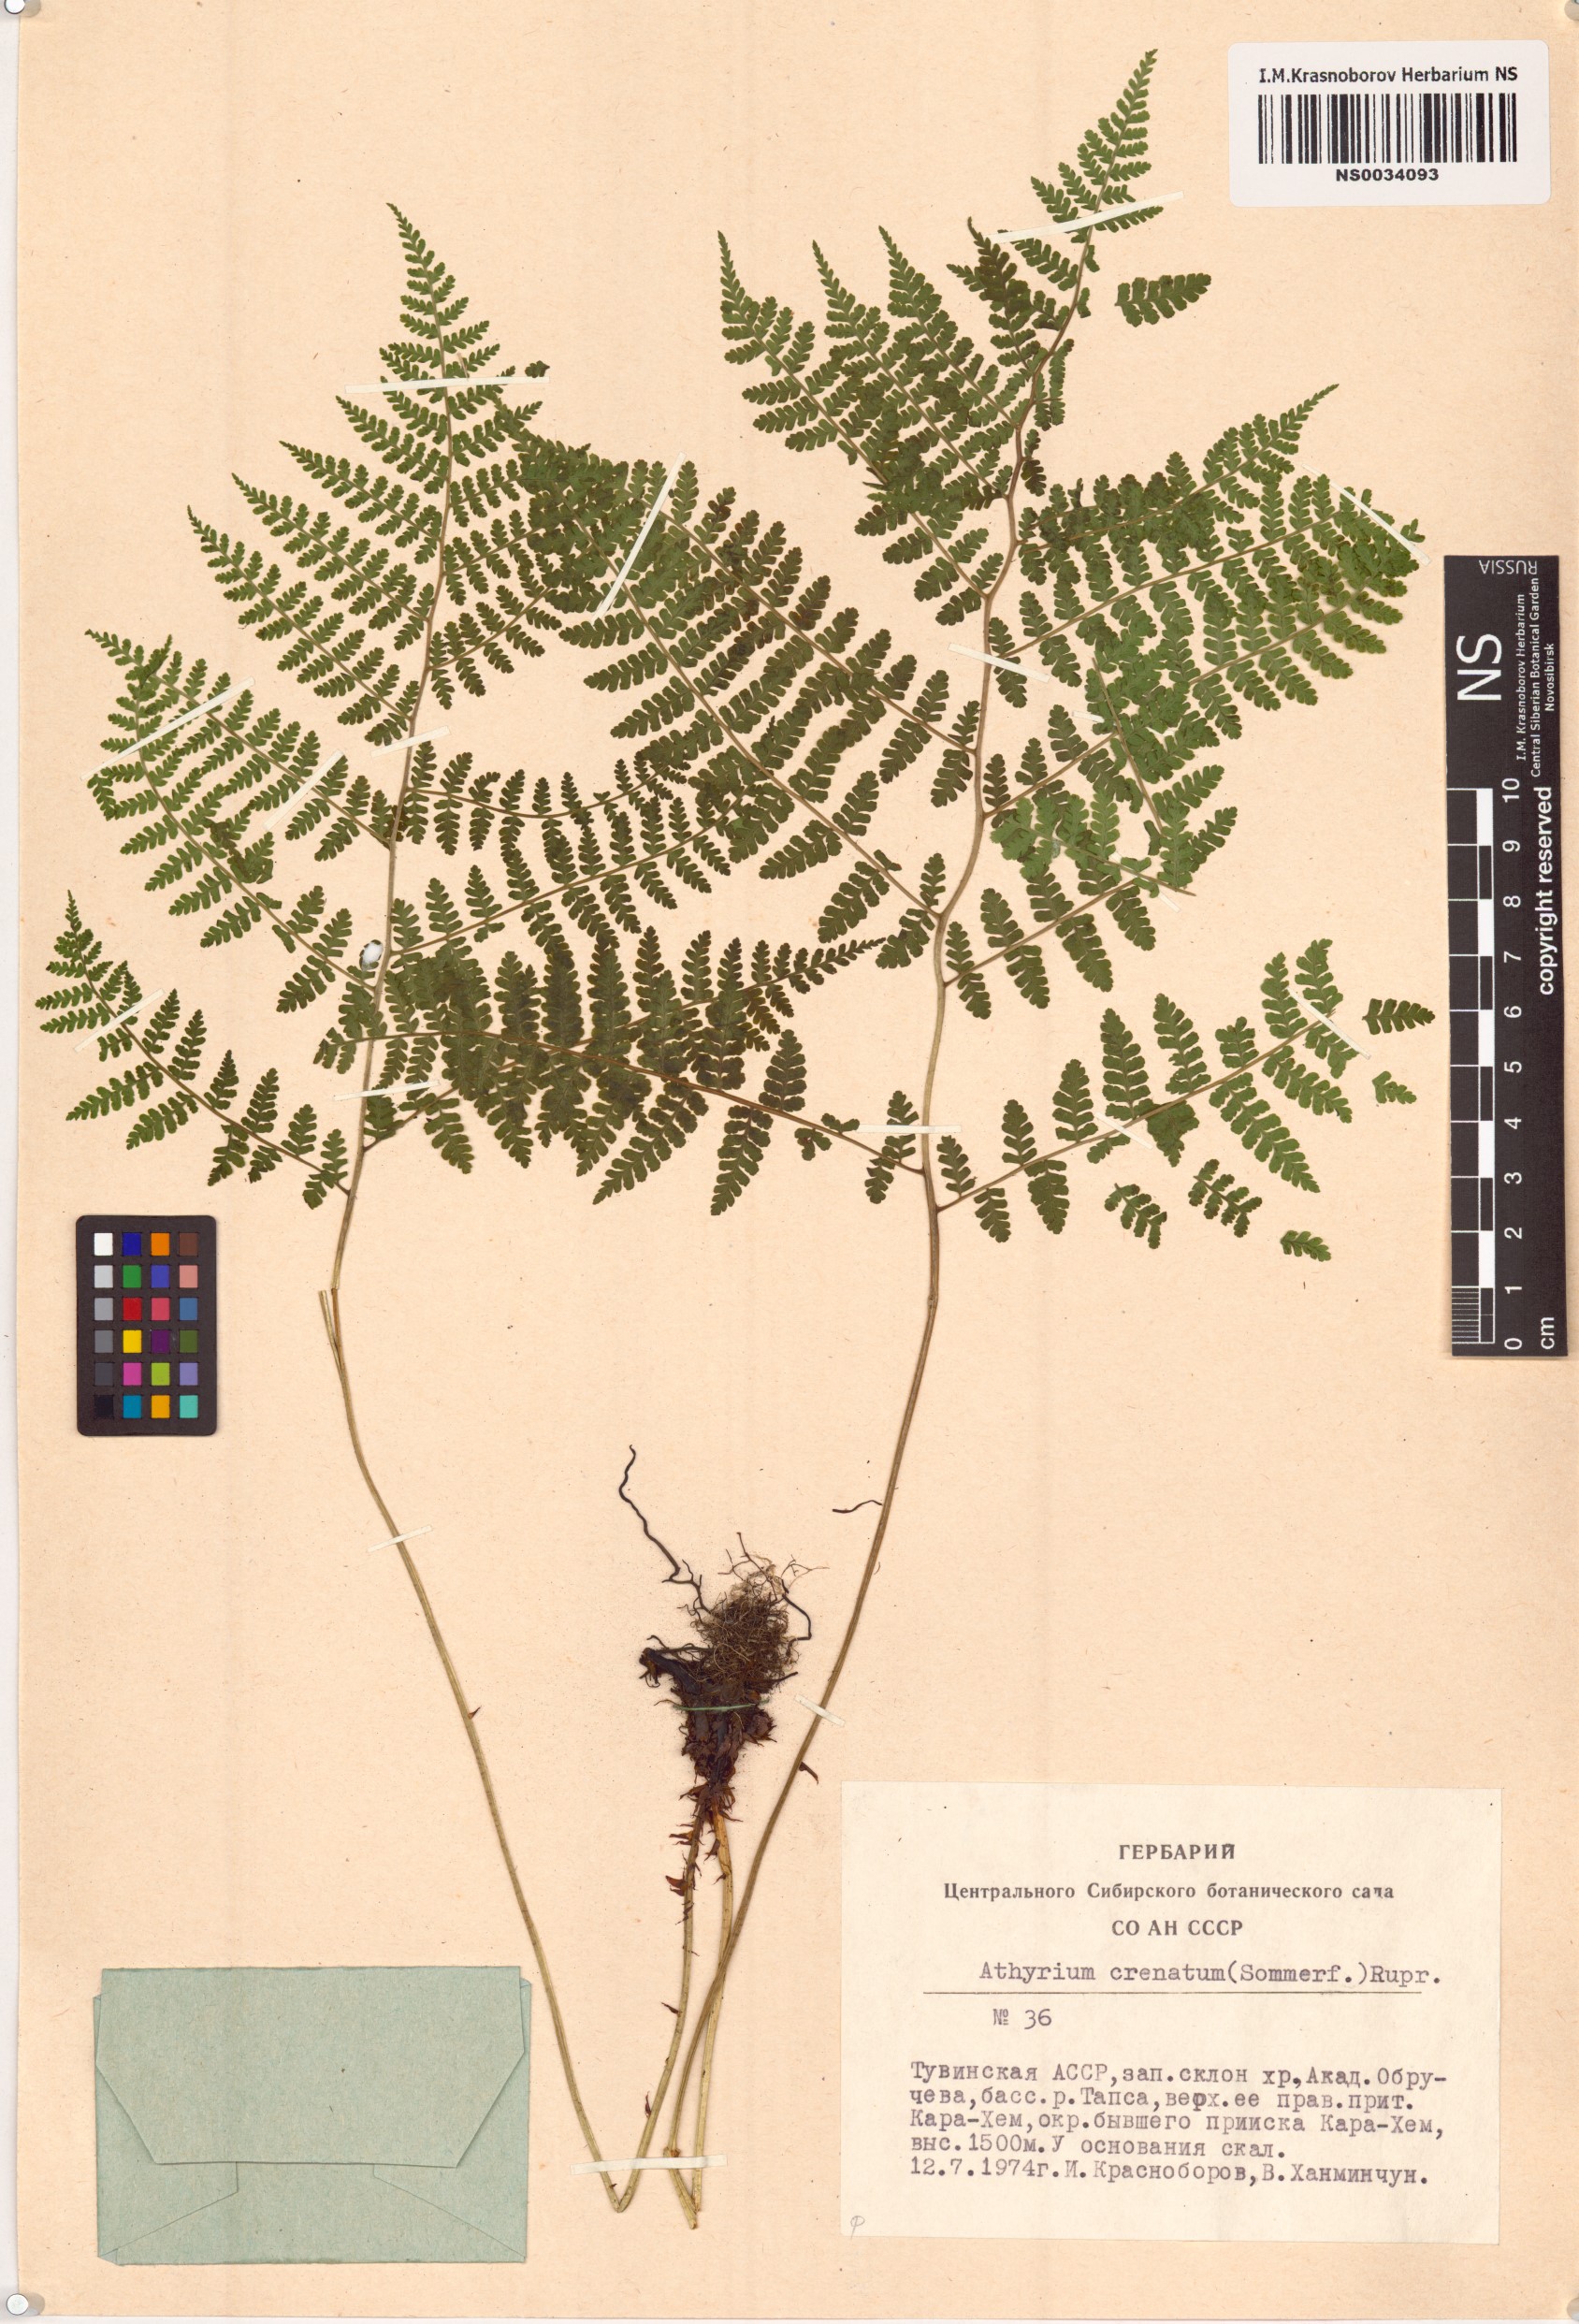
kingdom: Plantae
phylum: Tracheophyta
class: Polypodiopsida
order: Polypodiales
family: Athyriaceae
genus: Diplazium
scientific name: Diplazium sibiricum
